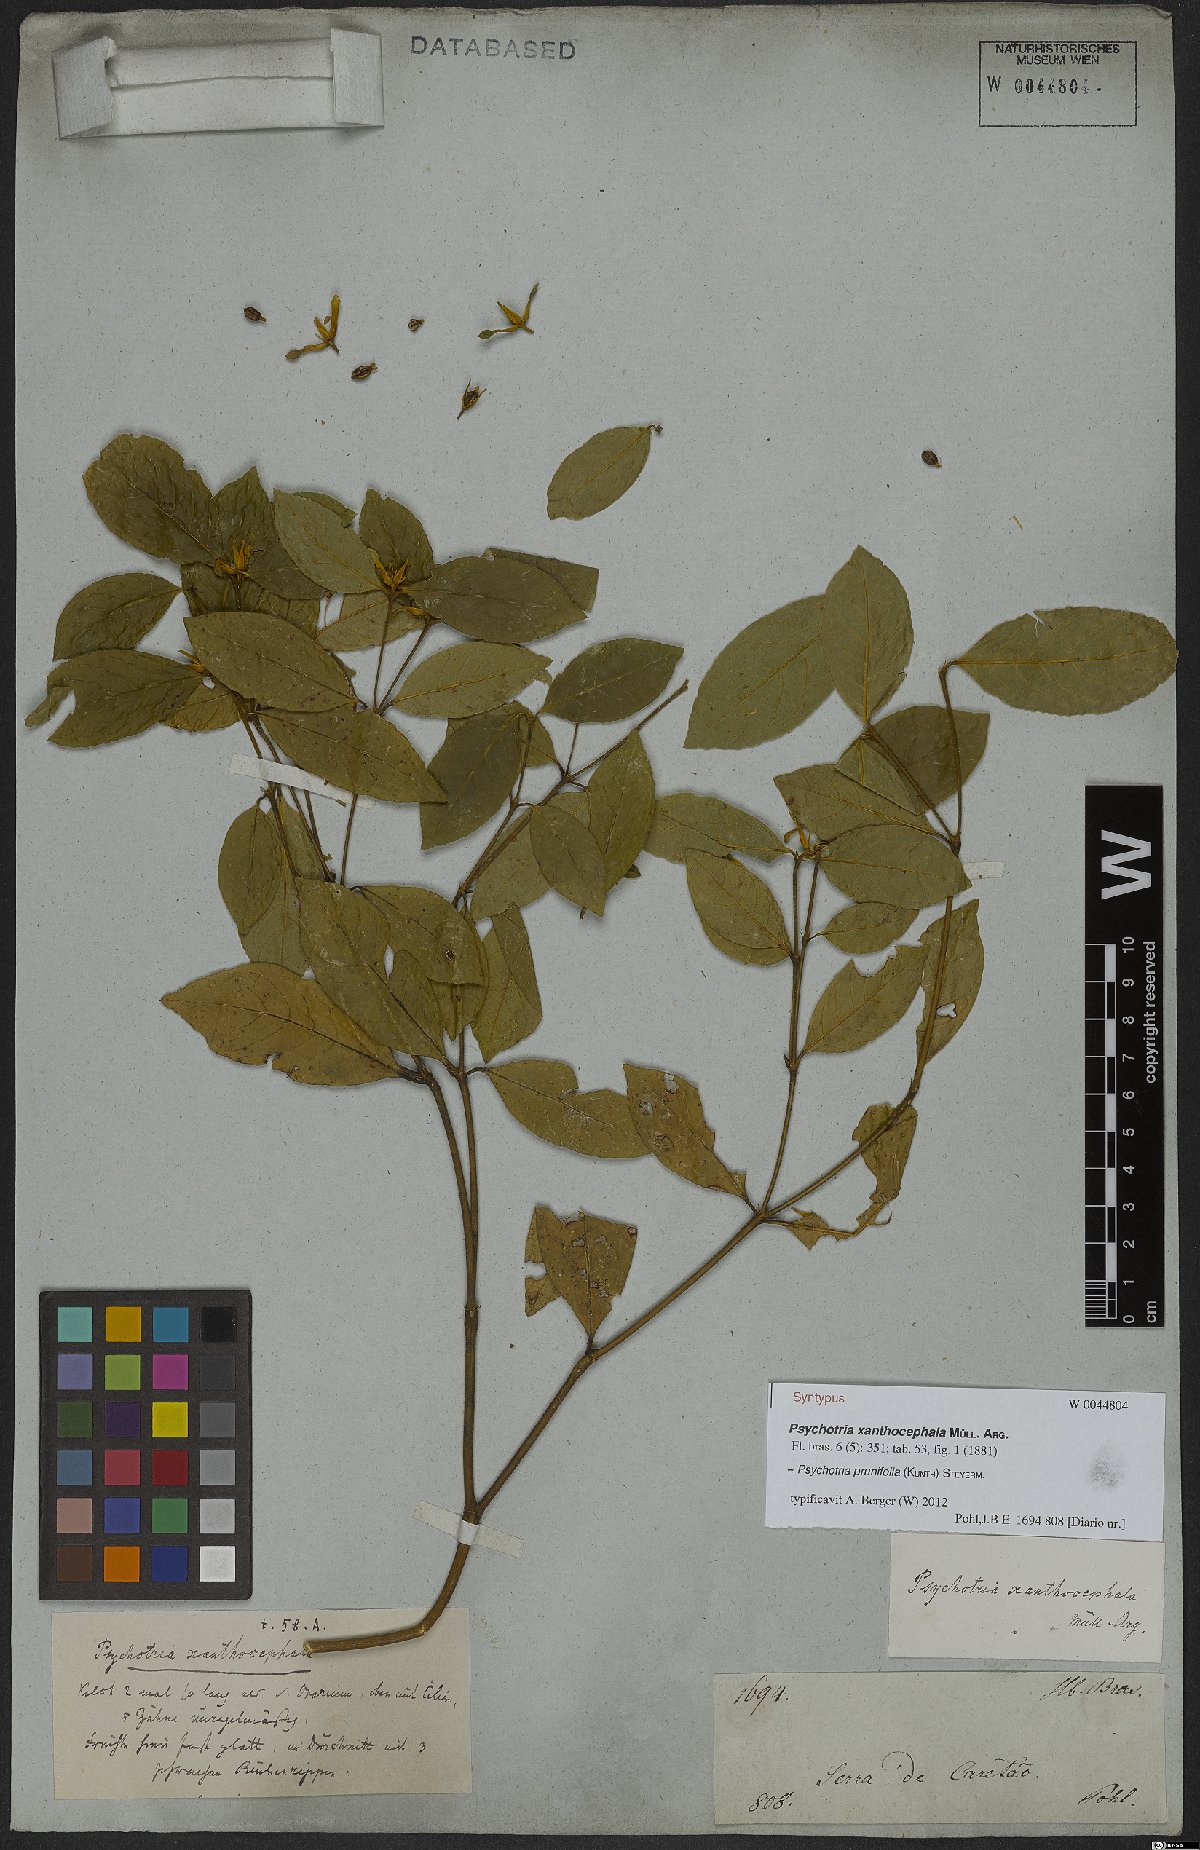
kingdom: Plantae
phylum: Tracheophyta
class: Magnoliopsida
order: Gentianales
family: Rubiaceae
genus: Palicourea
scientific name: Palicourea prunifolia
